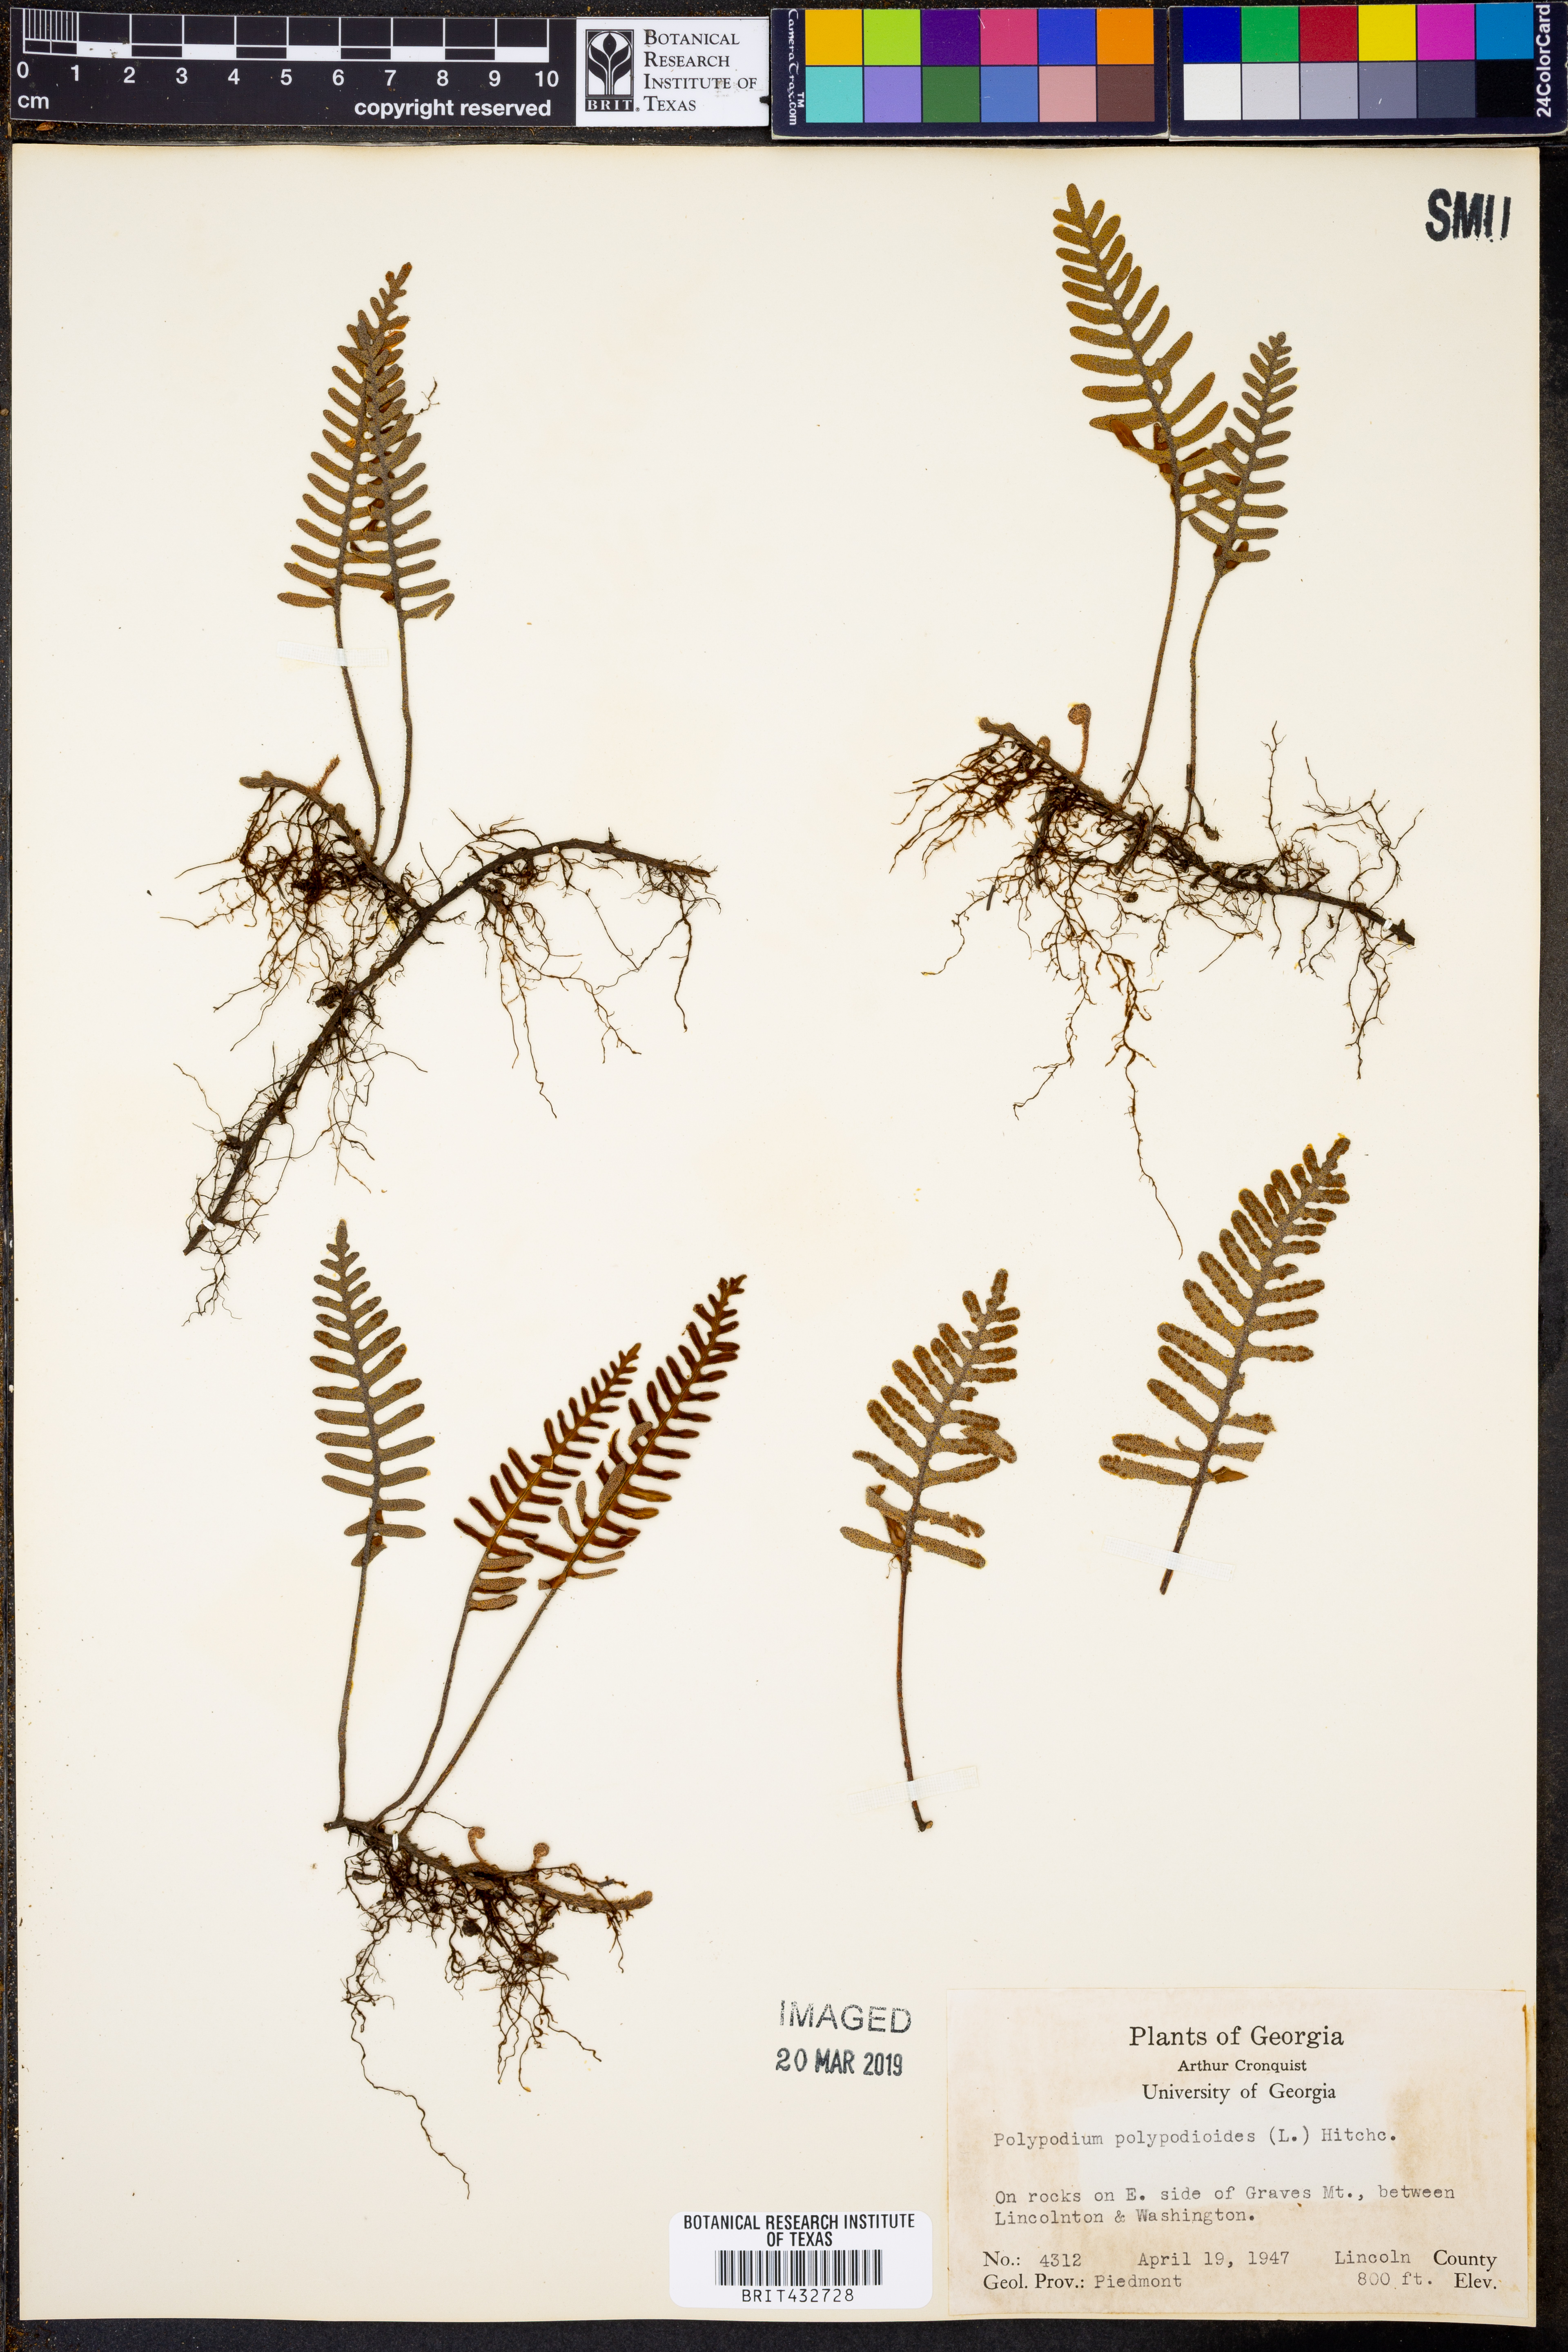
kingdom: Plantae
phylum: Tracheophyta
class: Polypodiopsida
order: Polypodiales
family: Polypodiaceae
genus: Pleopeltis
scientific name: Pleopeltis polypodioides
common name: Resurrection fern
